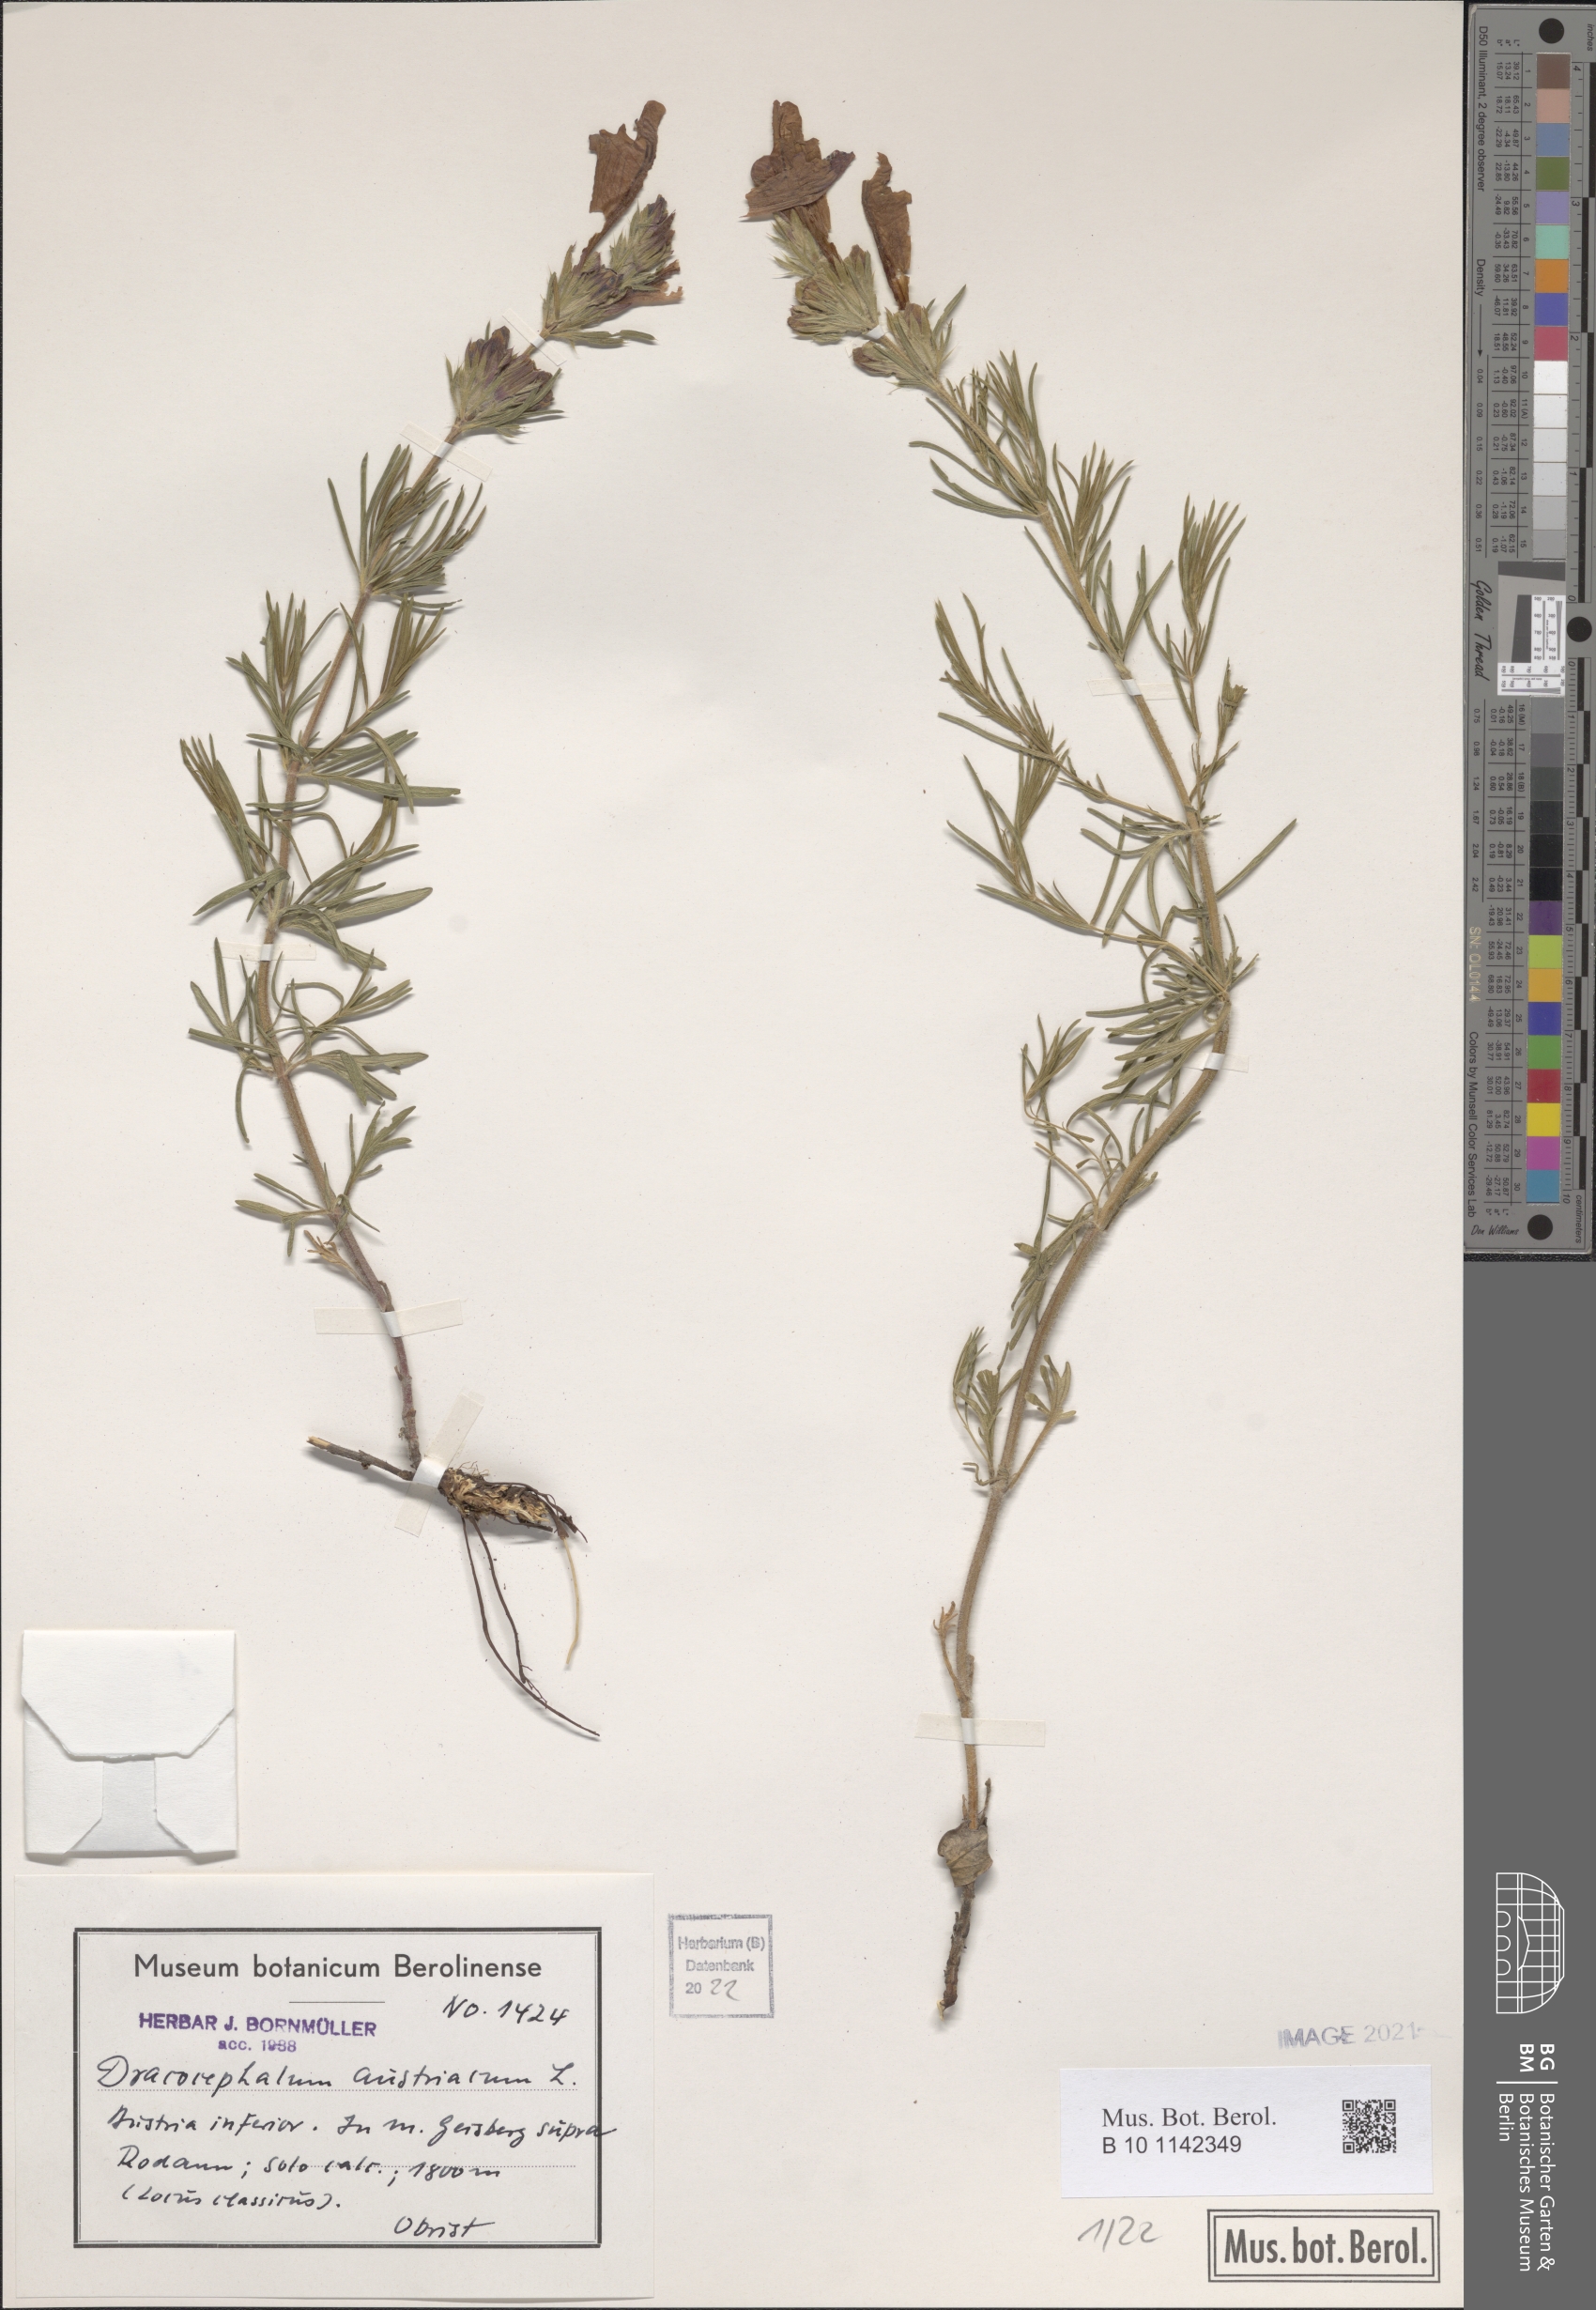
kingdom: Plantae
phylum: Tracheophyta
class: Magnoliopsida
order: Lamiales
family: Lamiaceae
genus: Dracocephalum
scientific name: Dracocephalum austriacum
